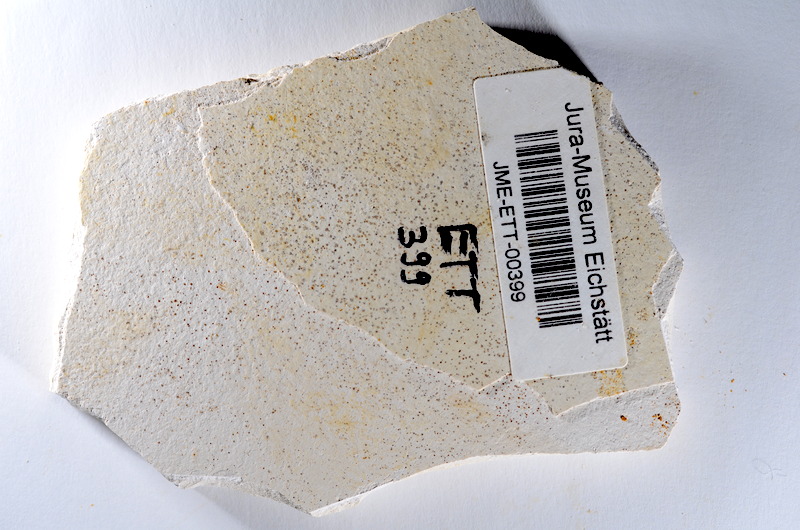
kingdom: Animalia
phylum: Chordata
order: Salmoniformes
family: Orthogonikleithridae
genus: Orthogonikleithrus
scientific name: Orthogonikleithrus hoelli
